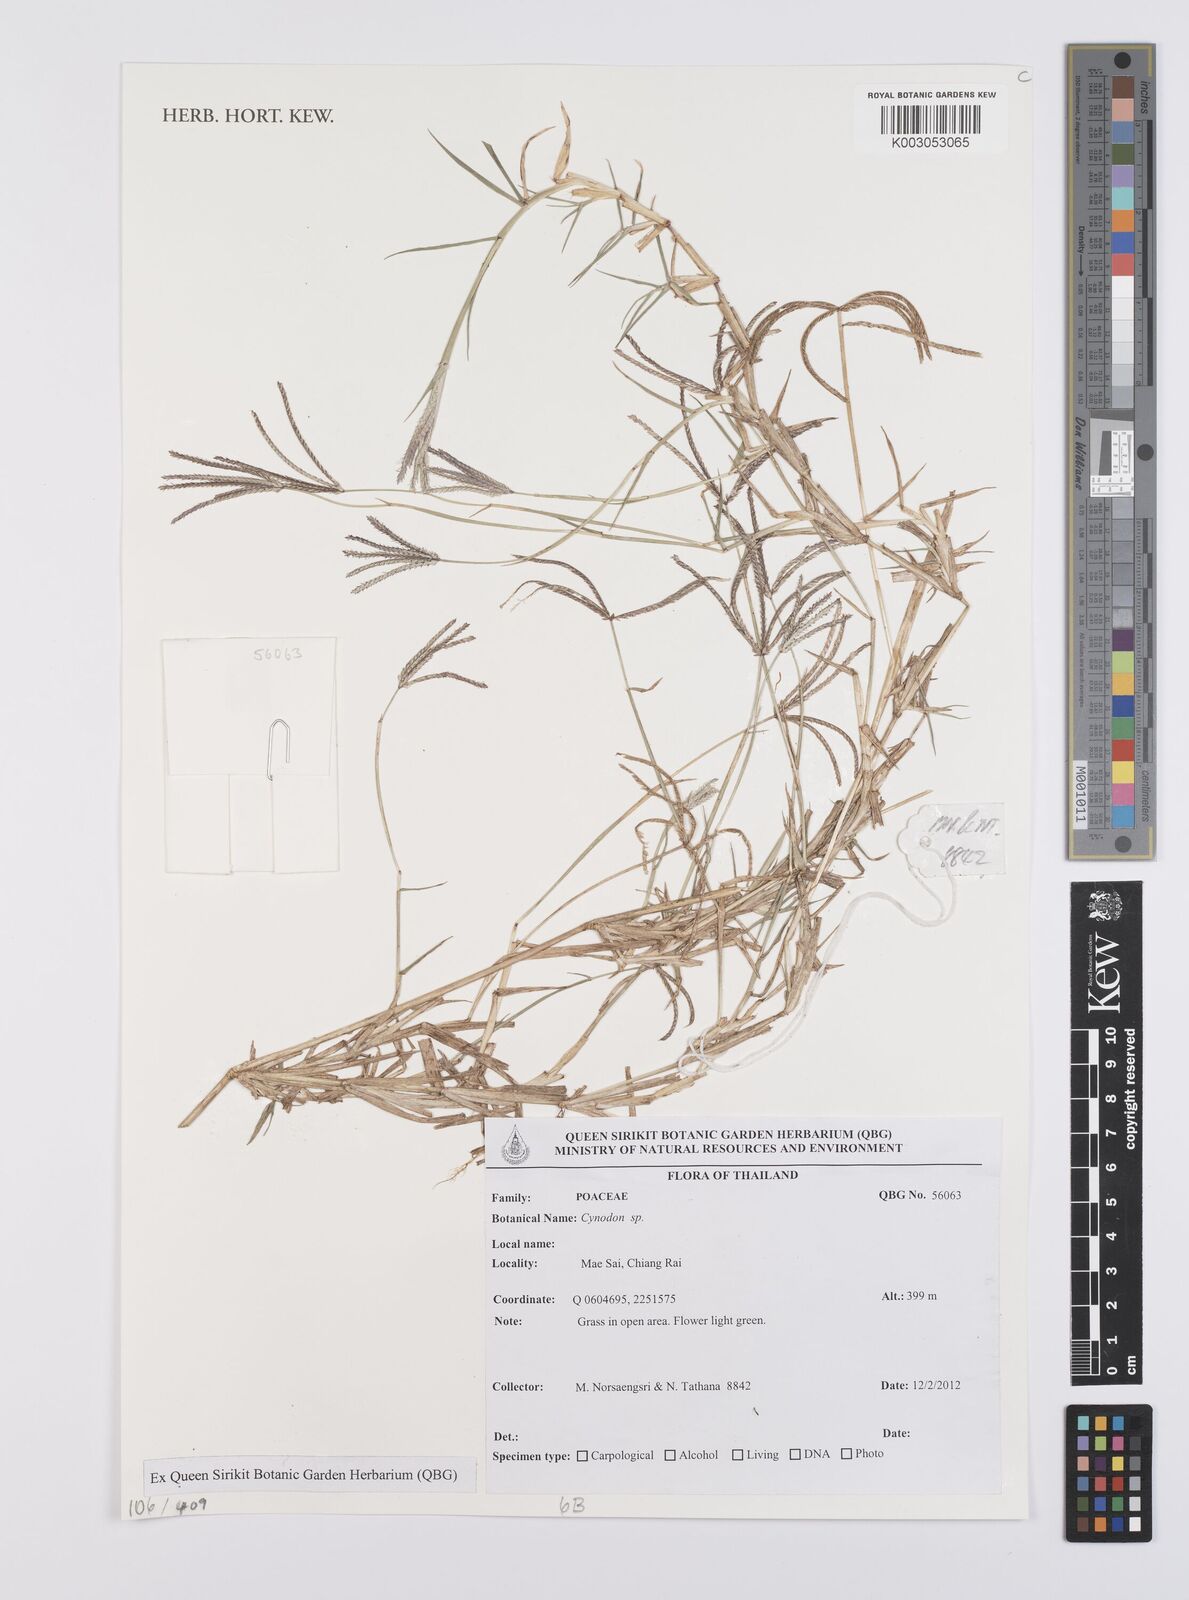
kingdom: Plantae
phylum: Tracheophyta
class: Liliopsida
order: Poales
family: Poaceae
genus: Cynodon
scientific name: Cynodon
